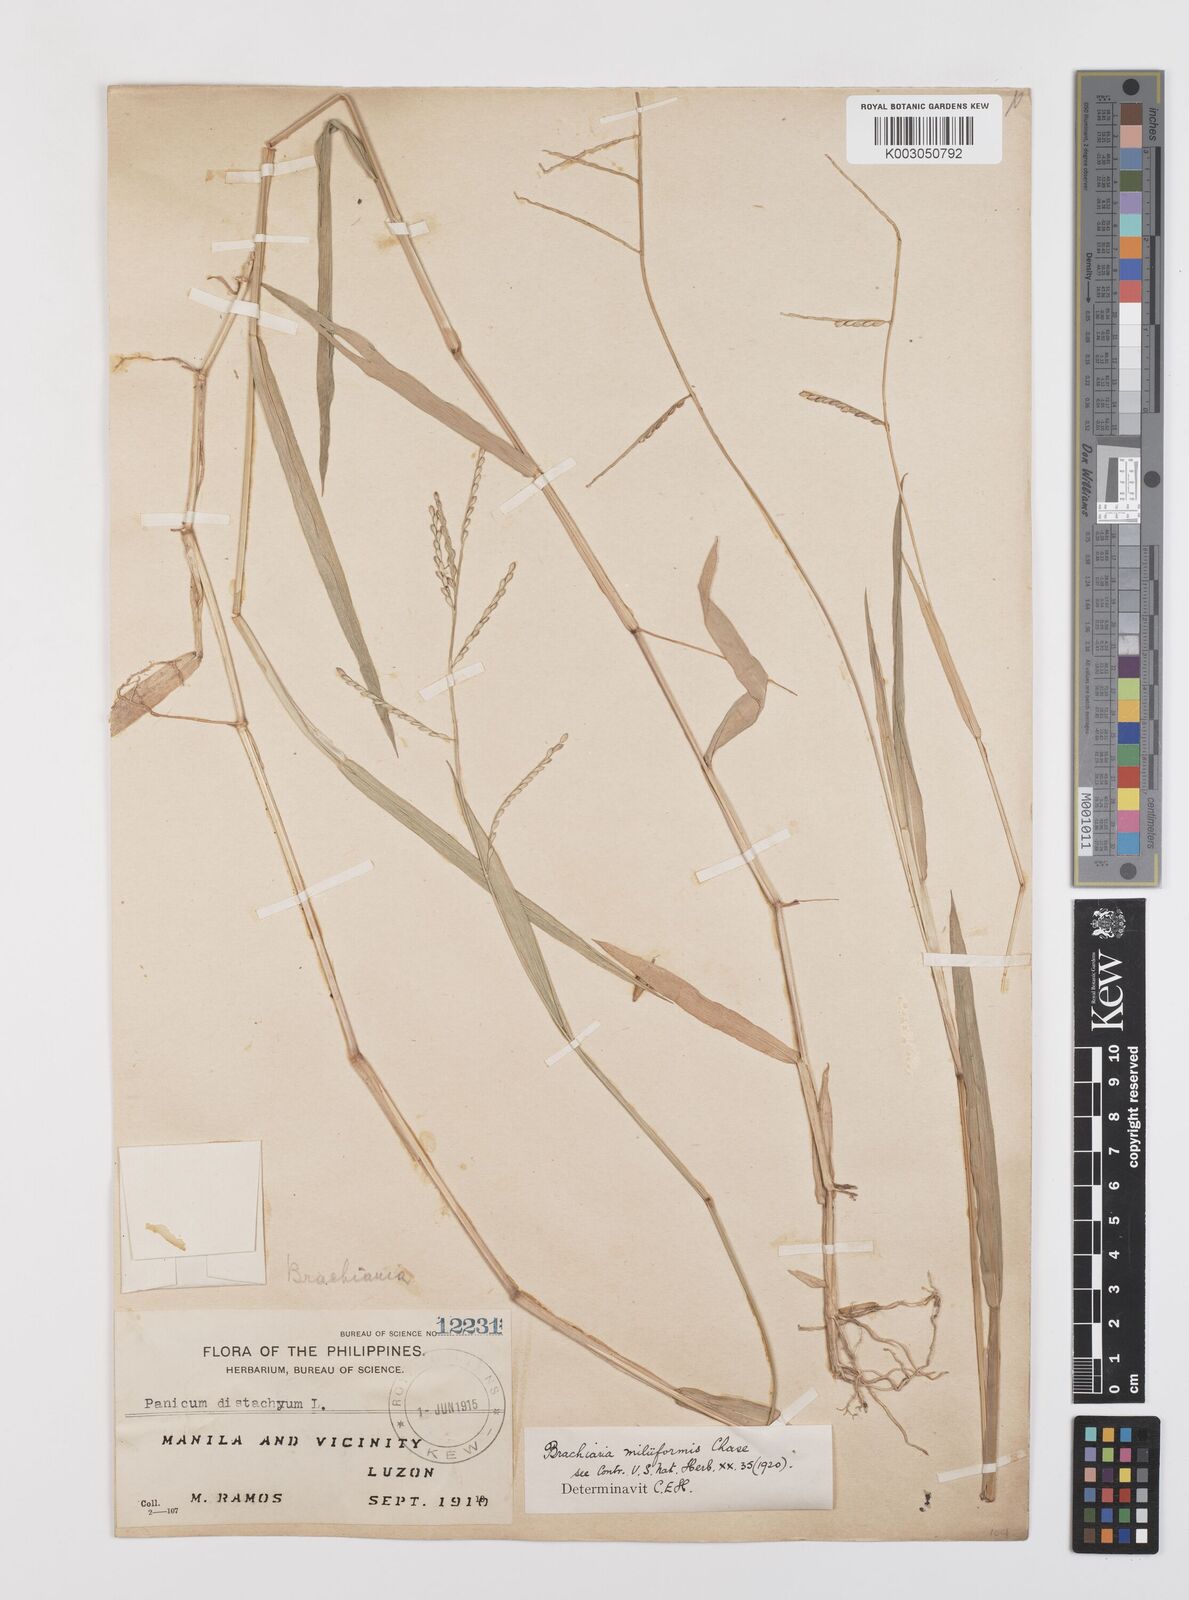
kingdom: Plantae
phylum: Tracheophyta
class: Liliopsida
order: Poales
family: Poaceae
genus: Urochloa
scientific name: Urochloa subquadripara
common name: Armgrass millet
